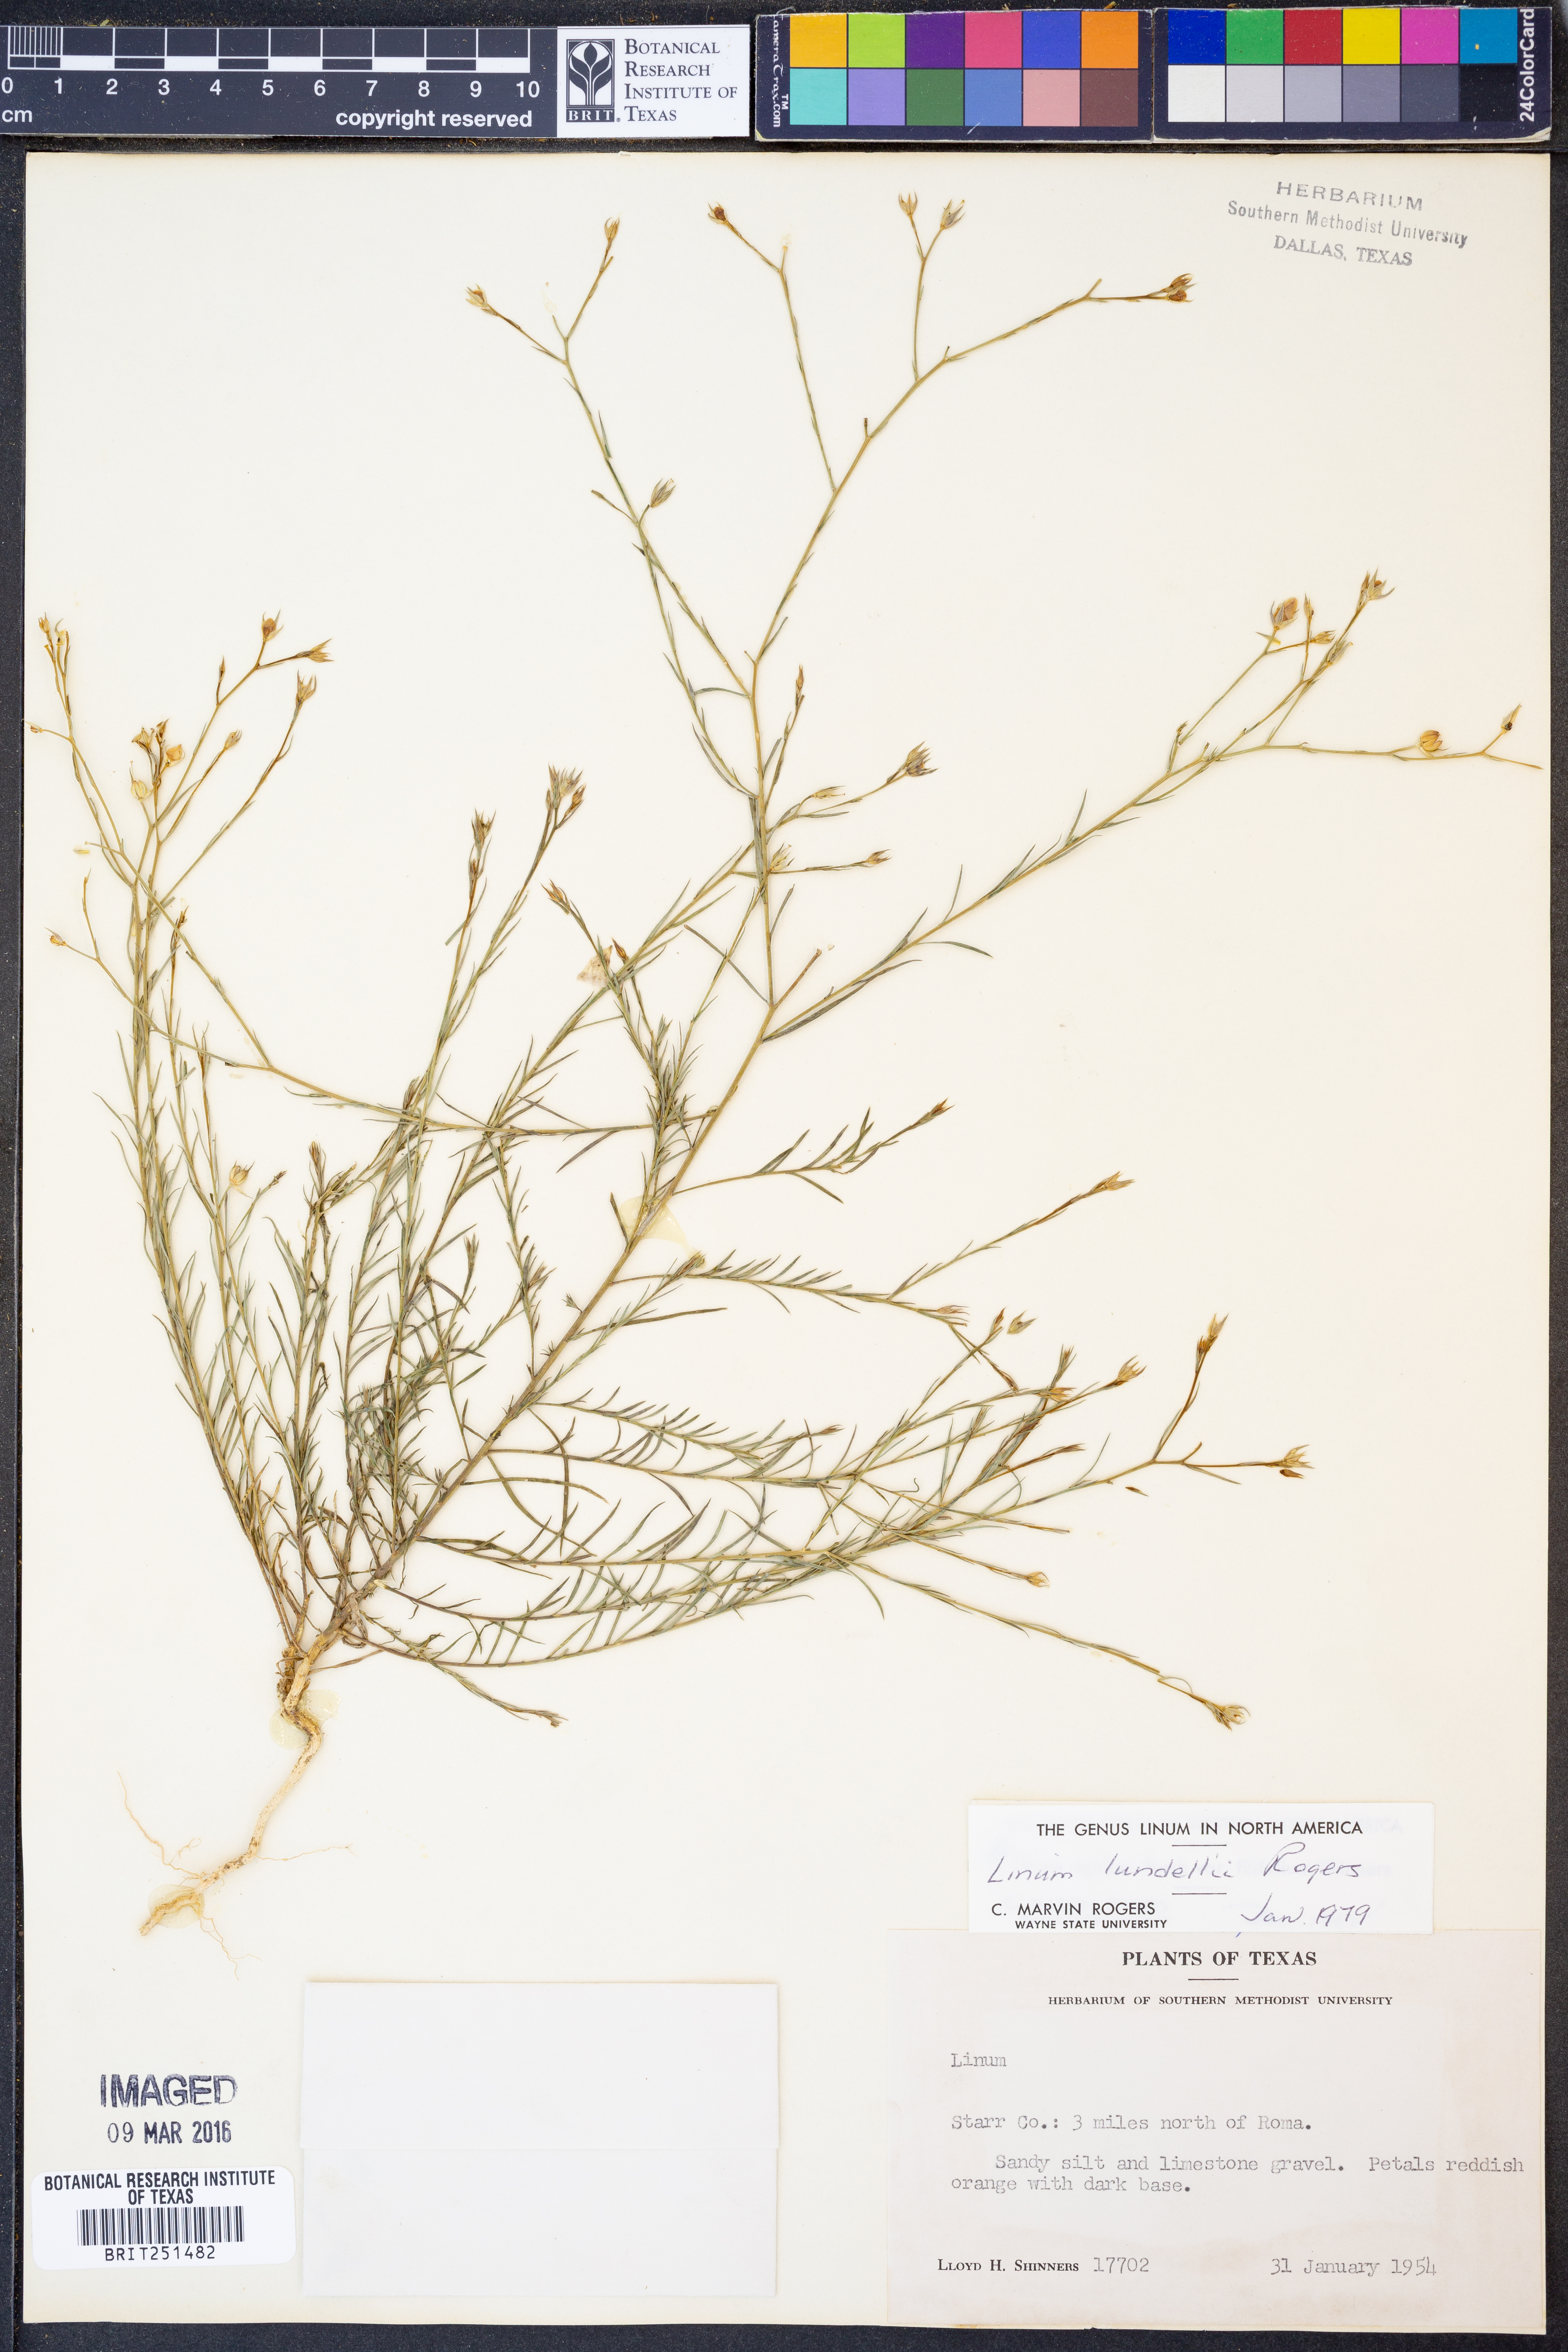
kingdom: Plantae
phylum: Tracheophyta
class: Magnoliopsida
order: Malpighiales
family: Linaceae
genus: Linum
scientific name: Linum lundellii
